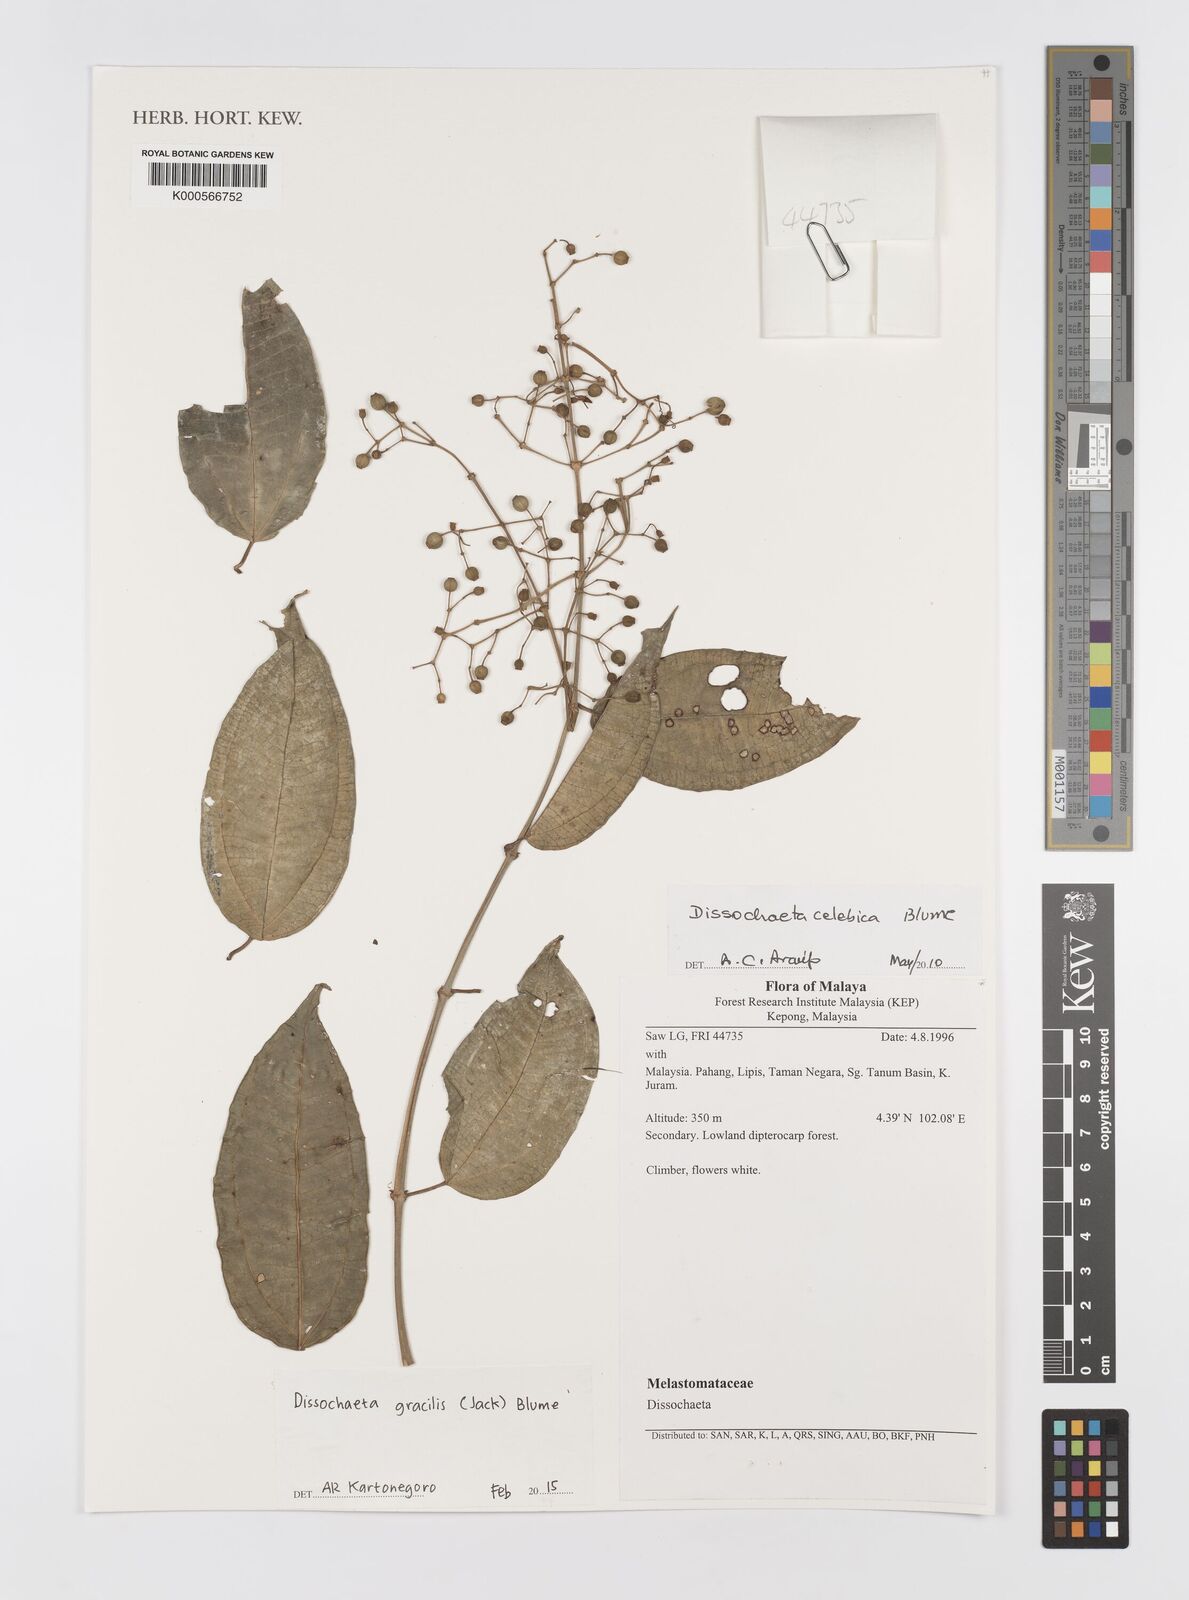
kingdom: Plantae
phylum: Tracheophyta
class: Magnoliopsida
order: Myrtales
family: Melastomataceae
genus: Dissochaeta
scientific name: Dissochaeta gracilis
